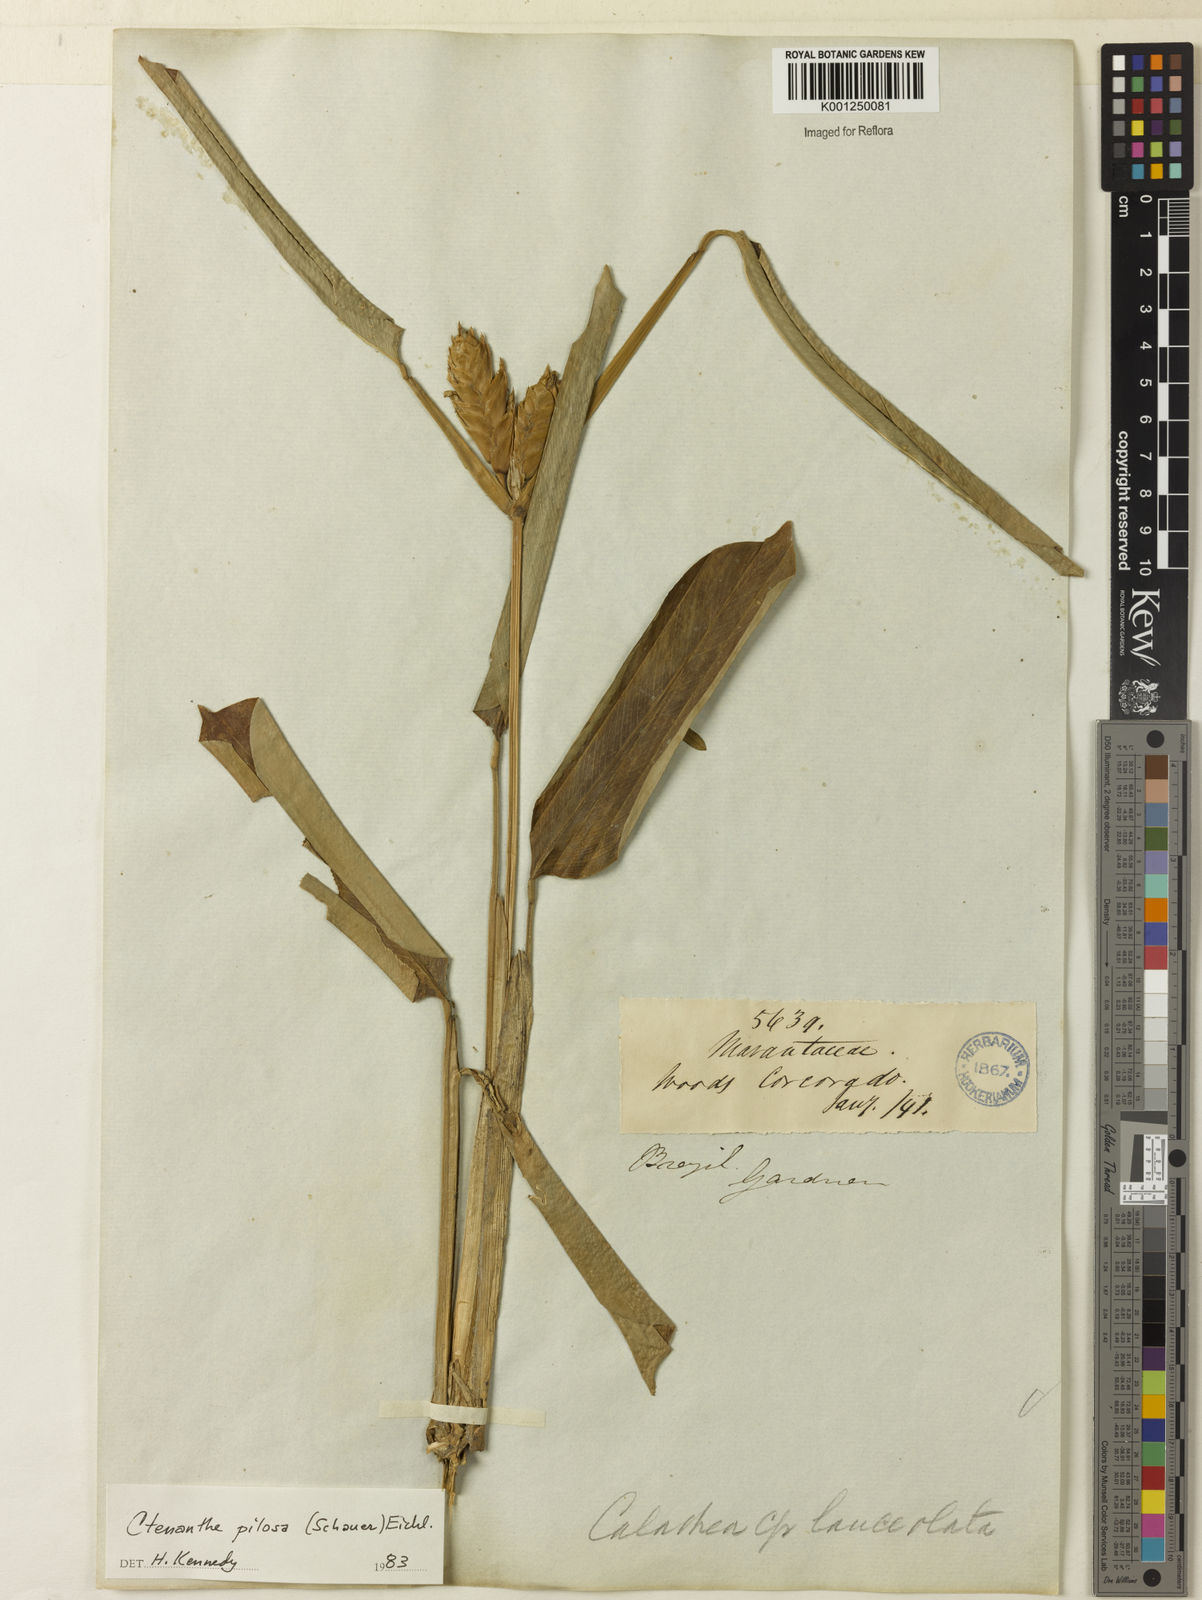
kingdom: Plantae
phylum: Tracheophyta
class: Liliopsida
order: Zingiberales
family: Marantaceae
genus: Ctenanthe
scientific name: Ctenanthe marantifolia
